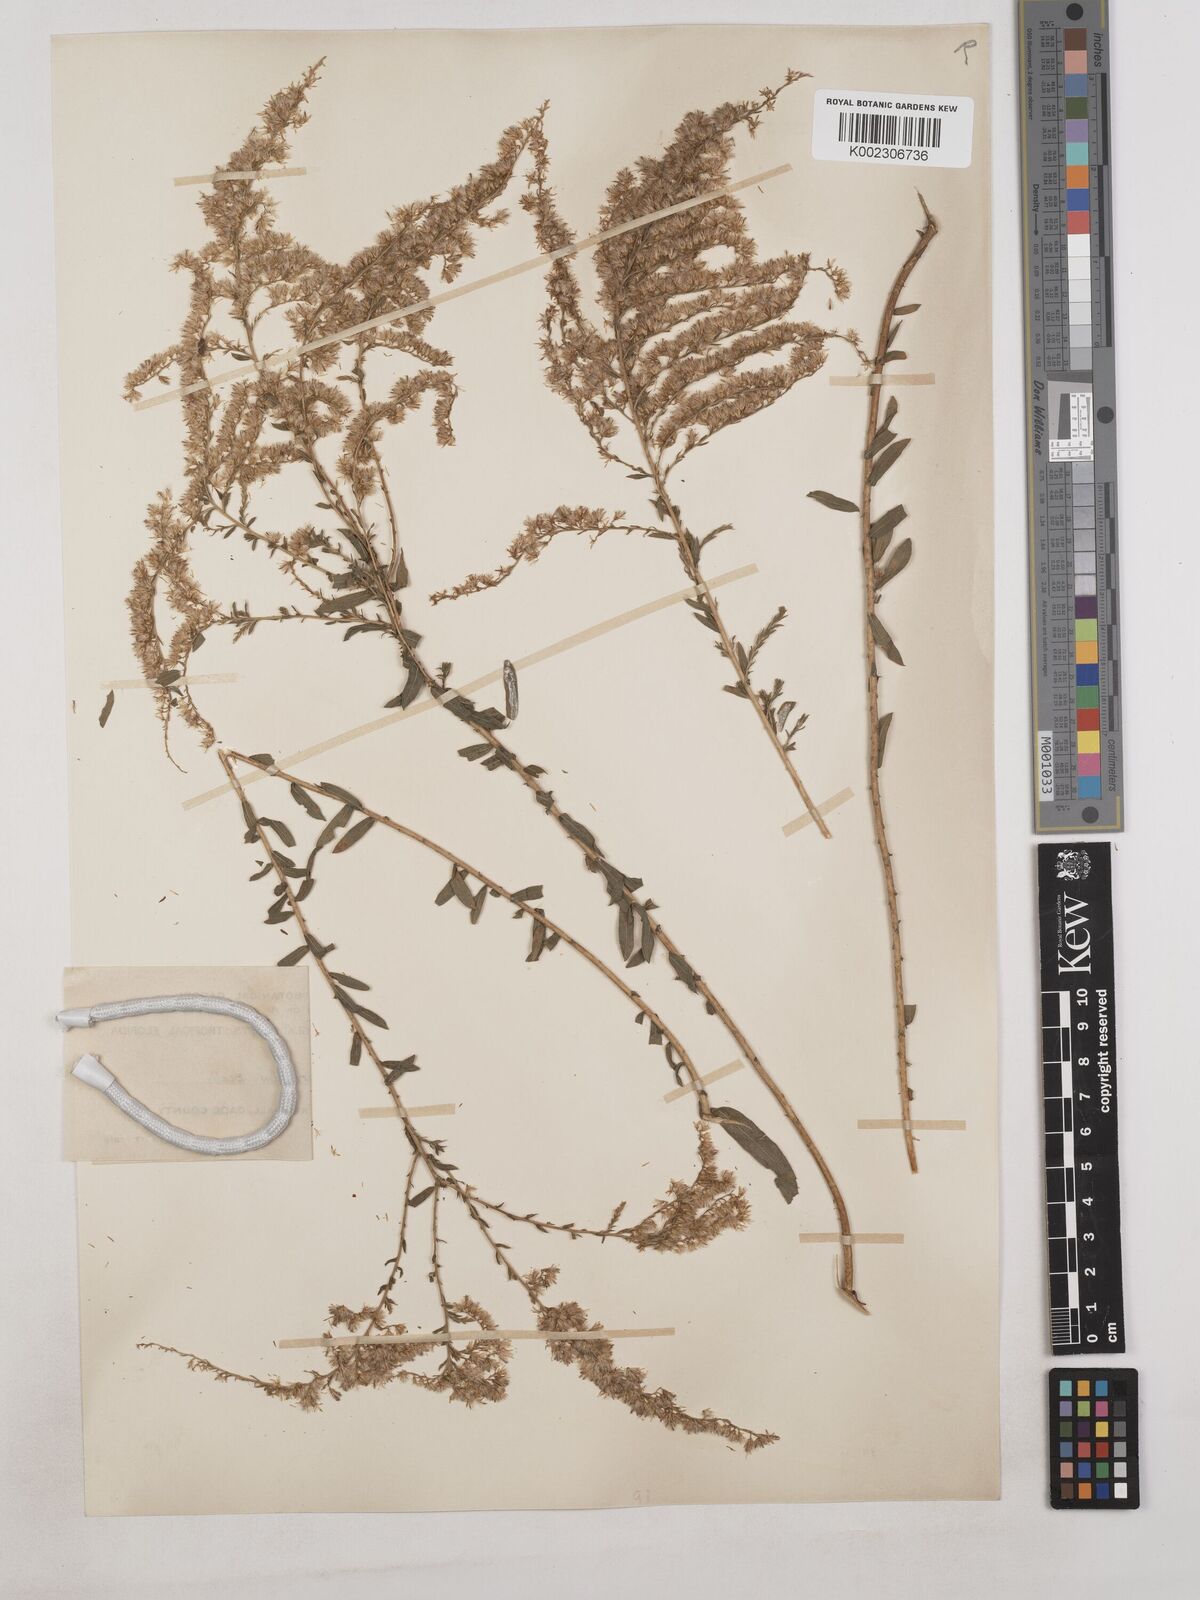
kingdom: Plantae
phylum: Tracheophyta
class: Magnoliopsida
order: Asterales
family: Asteraceae
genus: Solidago
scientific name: Solidago tortifolia
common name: Twisted-leaf goldenrod
